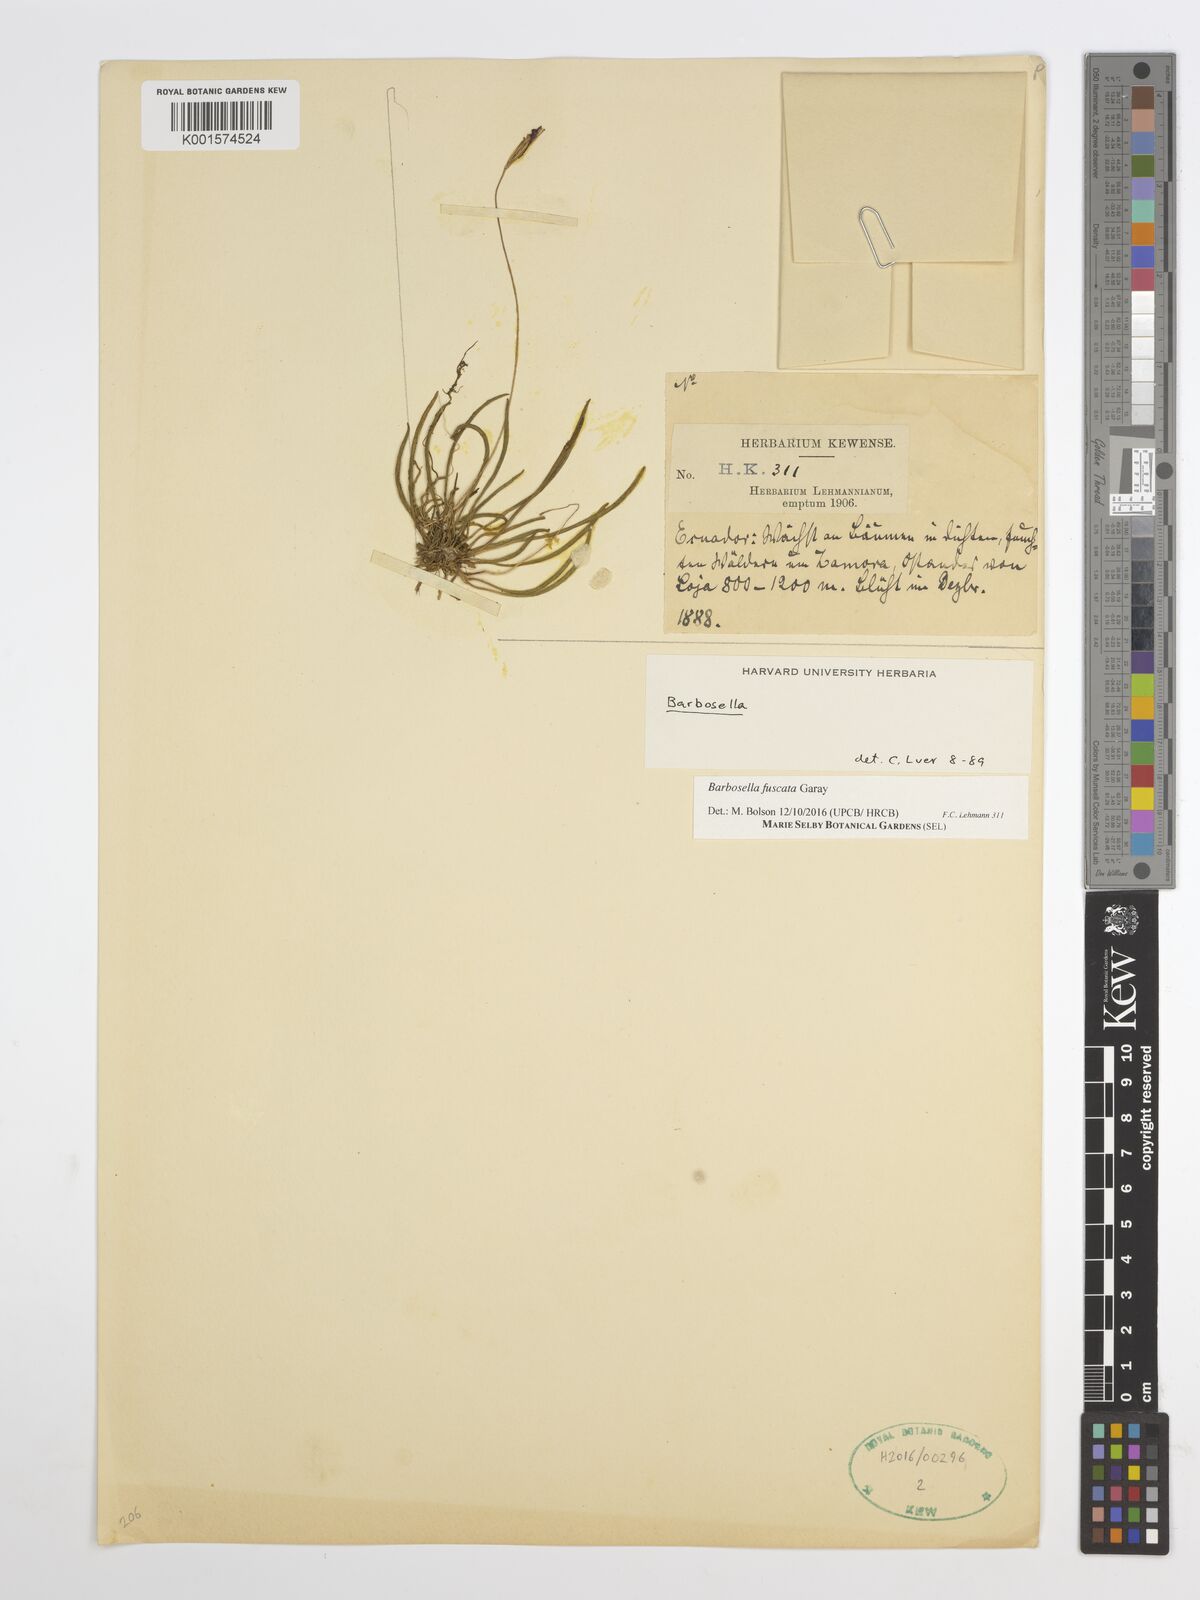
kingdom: Plantae
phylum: Tracheophyta
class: Liliopsida
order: Asparagales
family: Orchidaceae
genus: Barbosella
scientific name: Barbosella dolichorhiza
